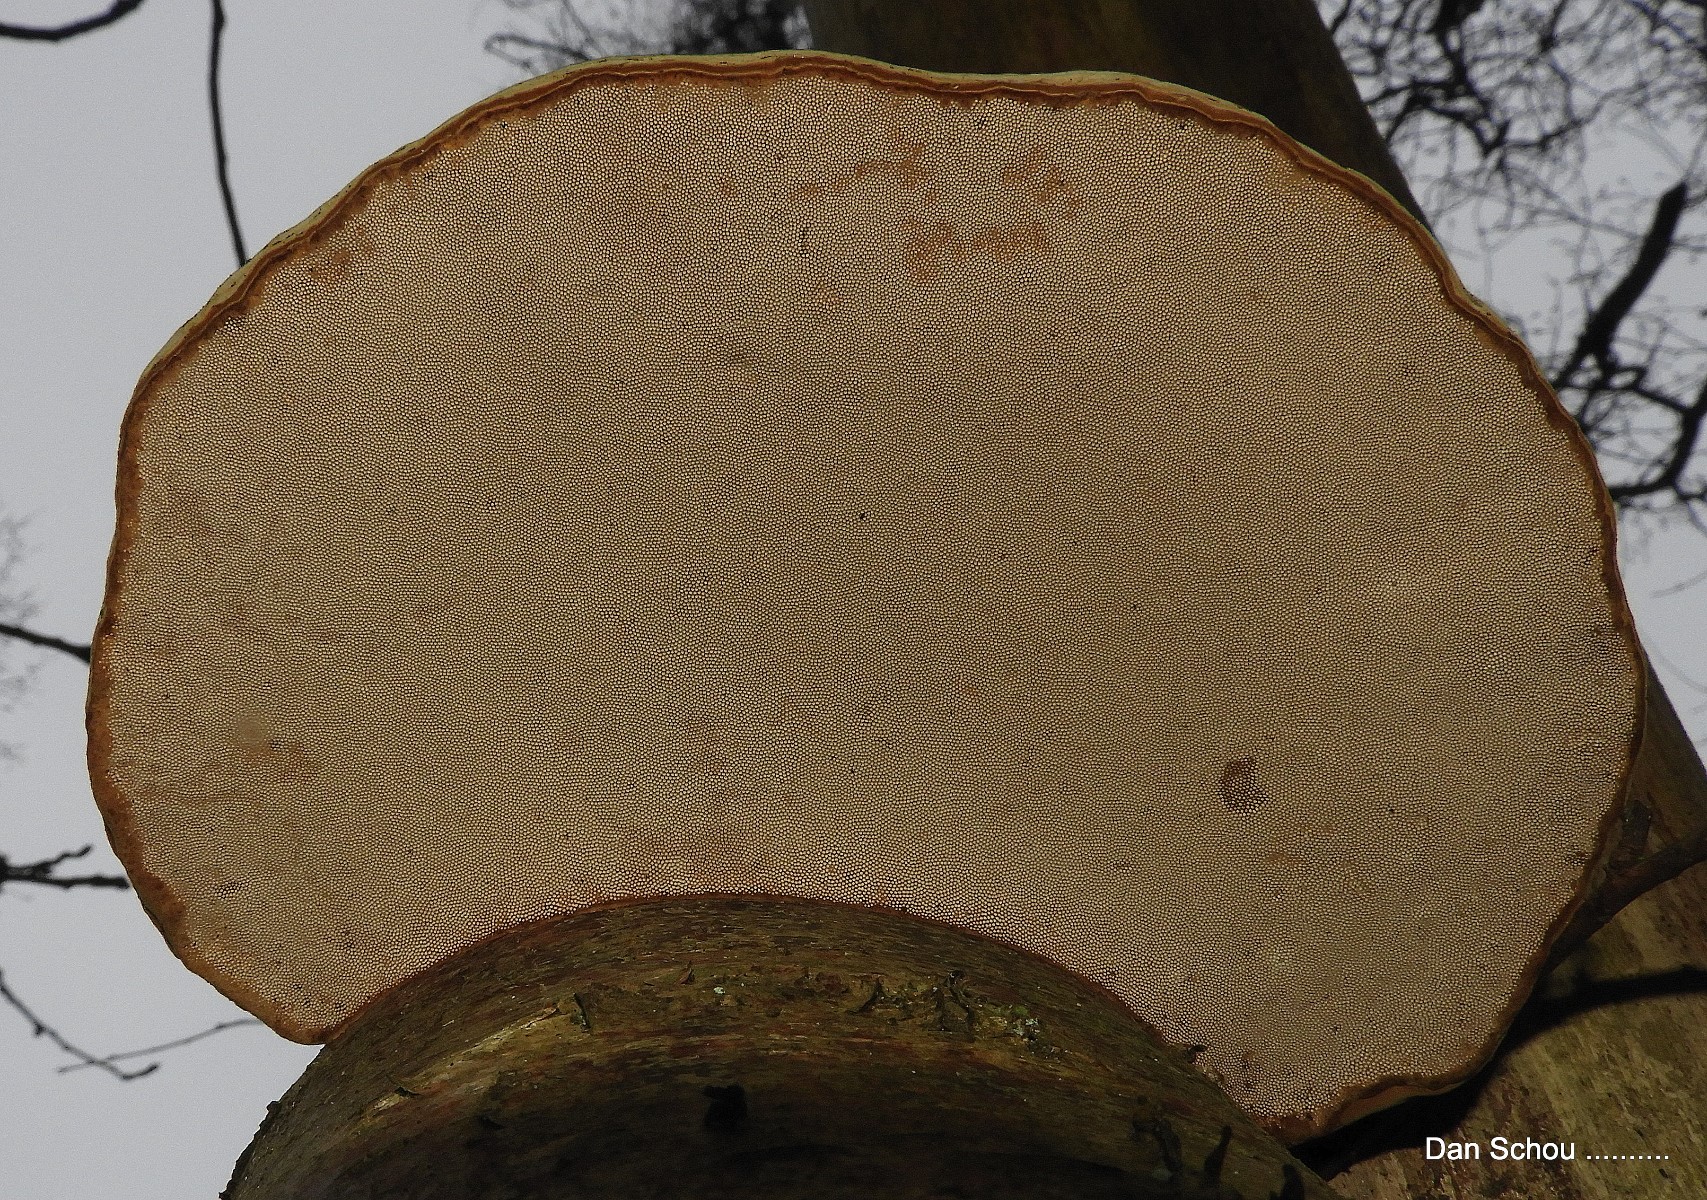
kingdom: Fungi
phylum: Basidiomycota
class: Agaricomycetes
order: Polyporales
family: Polyporaceae
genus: Fomes
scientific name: Fomes fomentarius
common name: tøndersvamp
